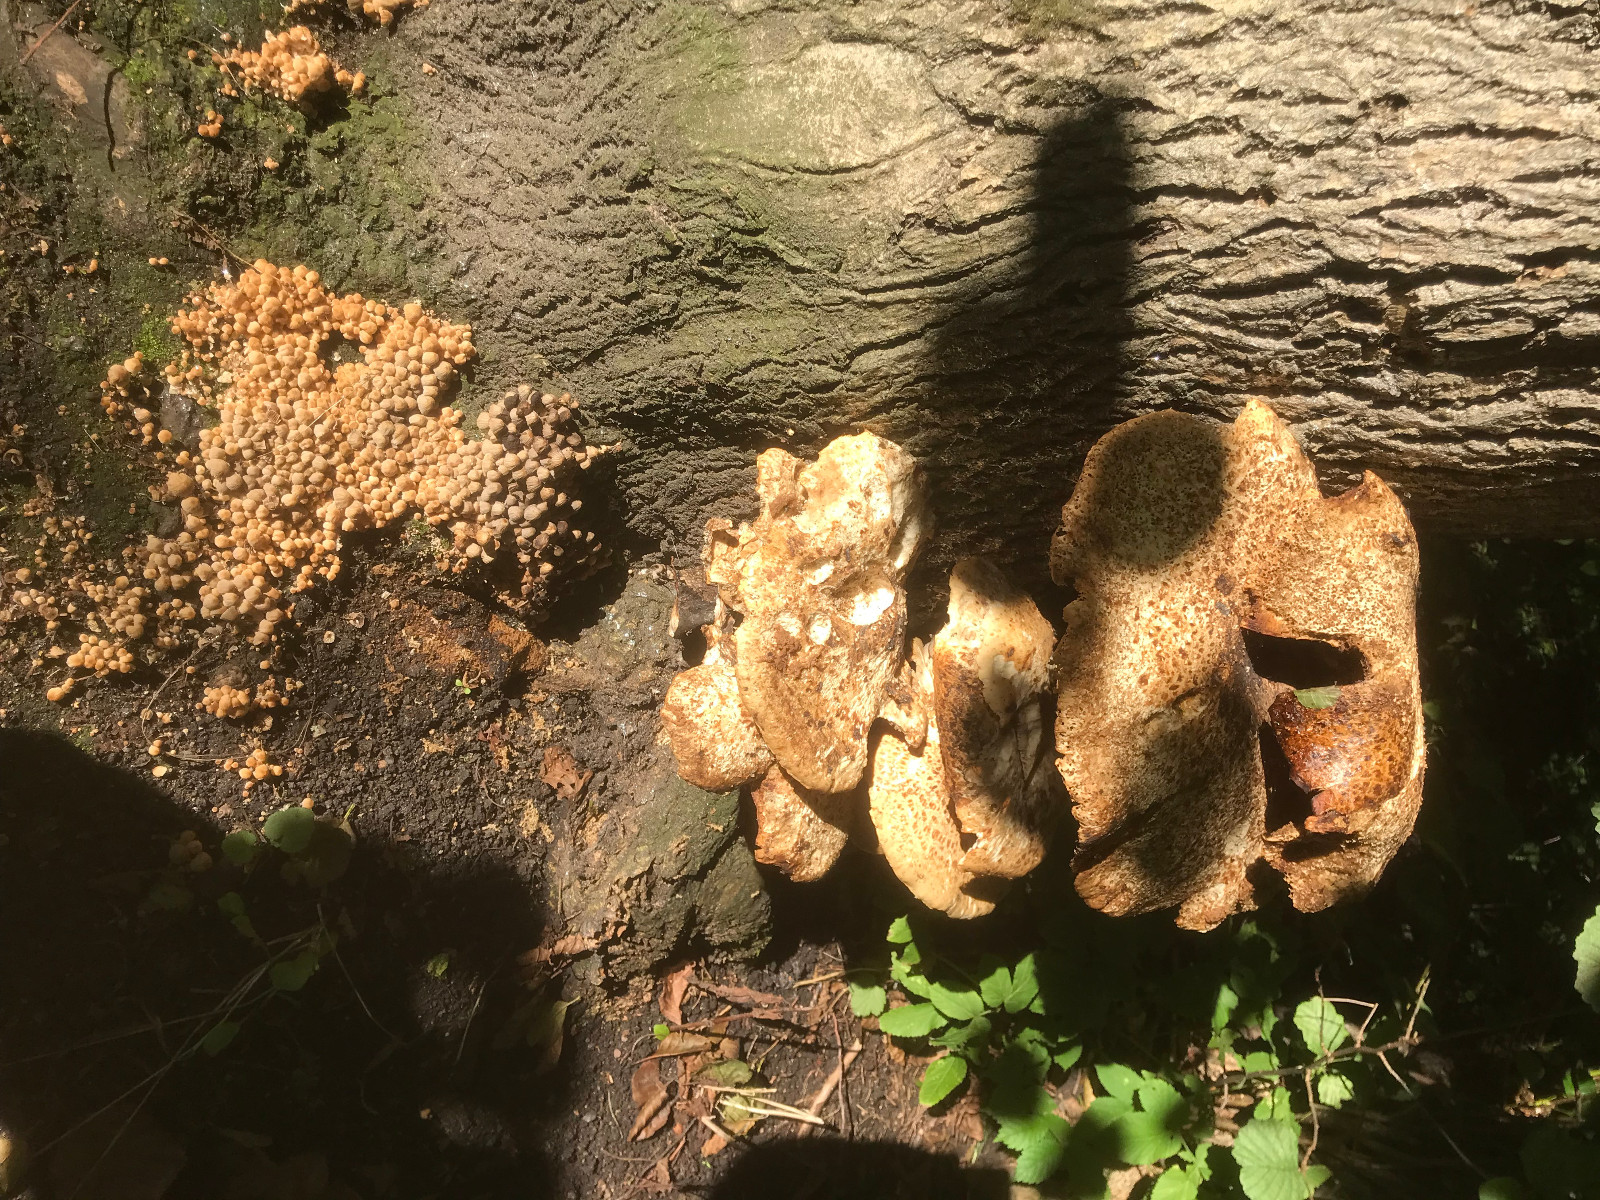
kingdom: Fungi
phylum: Basidiomycota
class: Agaricomycetes
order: Agaricales
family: Psathyrellaceae
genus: Coprinellus
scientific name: Coprinellus disseminatus
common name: bredsået blækhat
